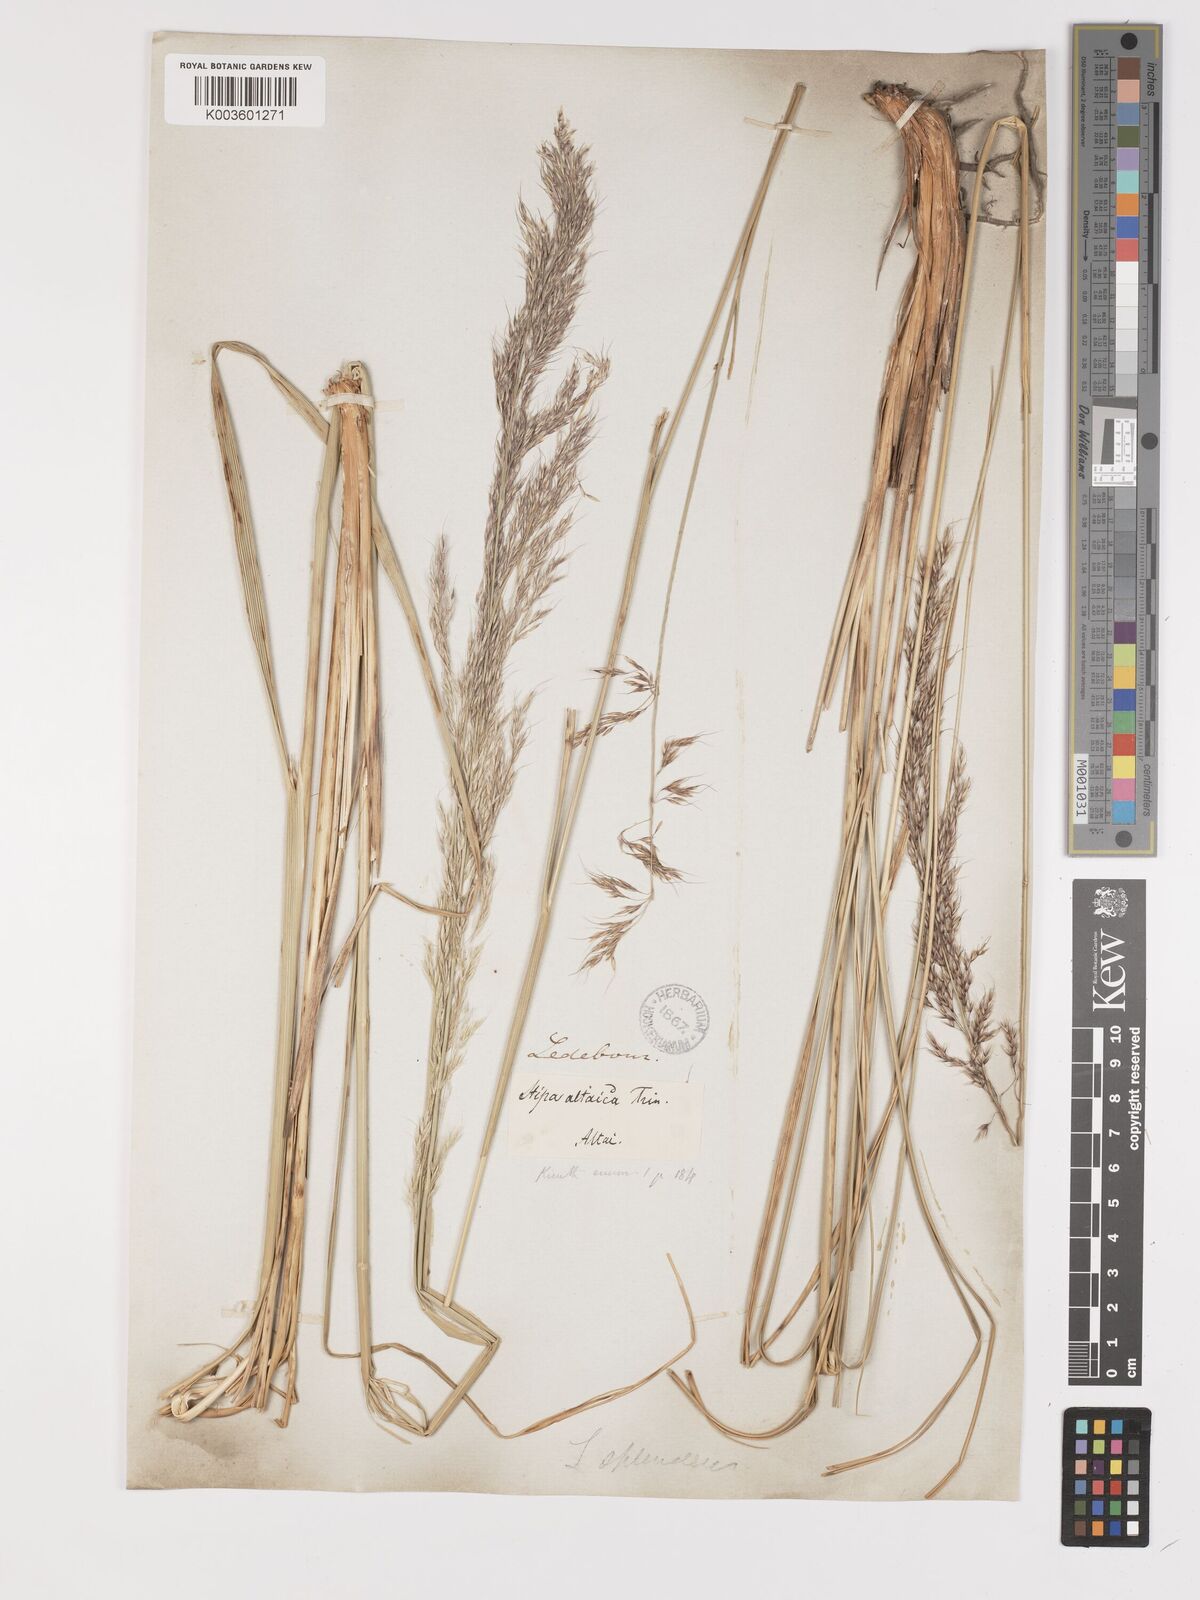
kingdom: Plantae
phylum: Tracheophyta
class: Liliopsida
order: Poales
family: Poaceae
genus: Neotrinia
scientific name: Neotrinia splendens
